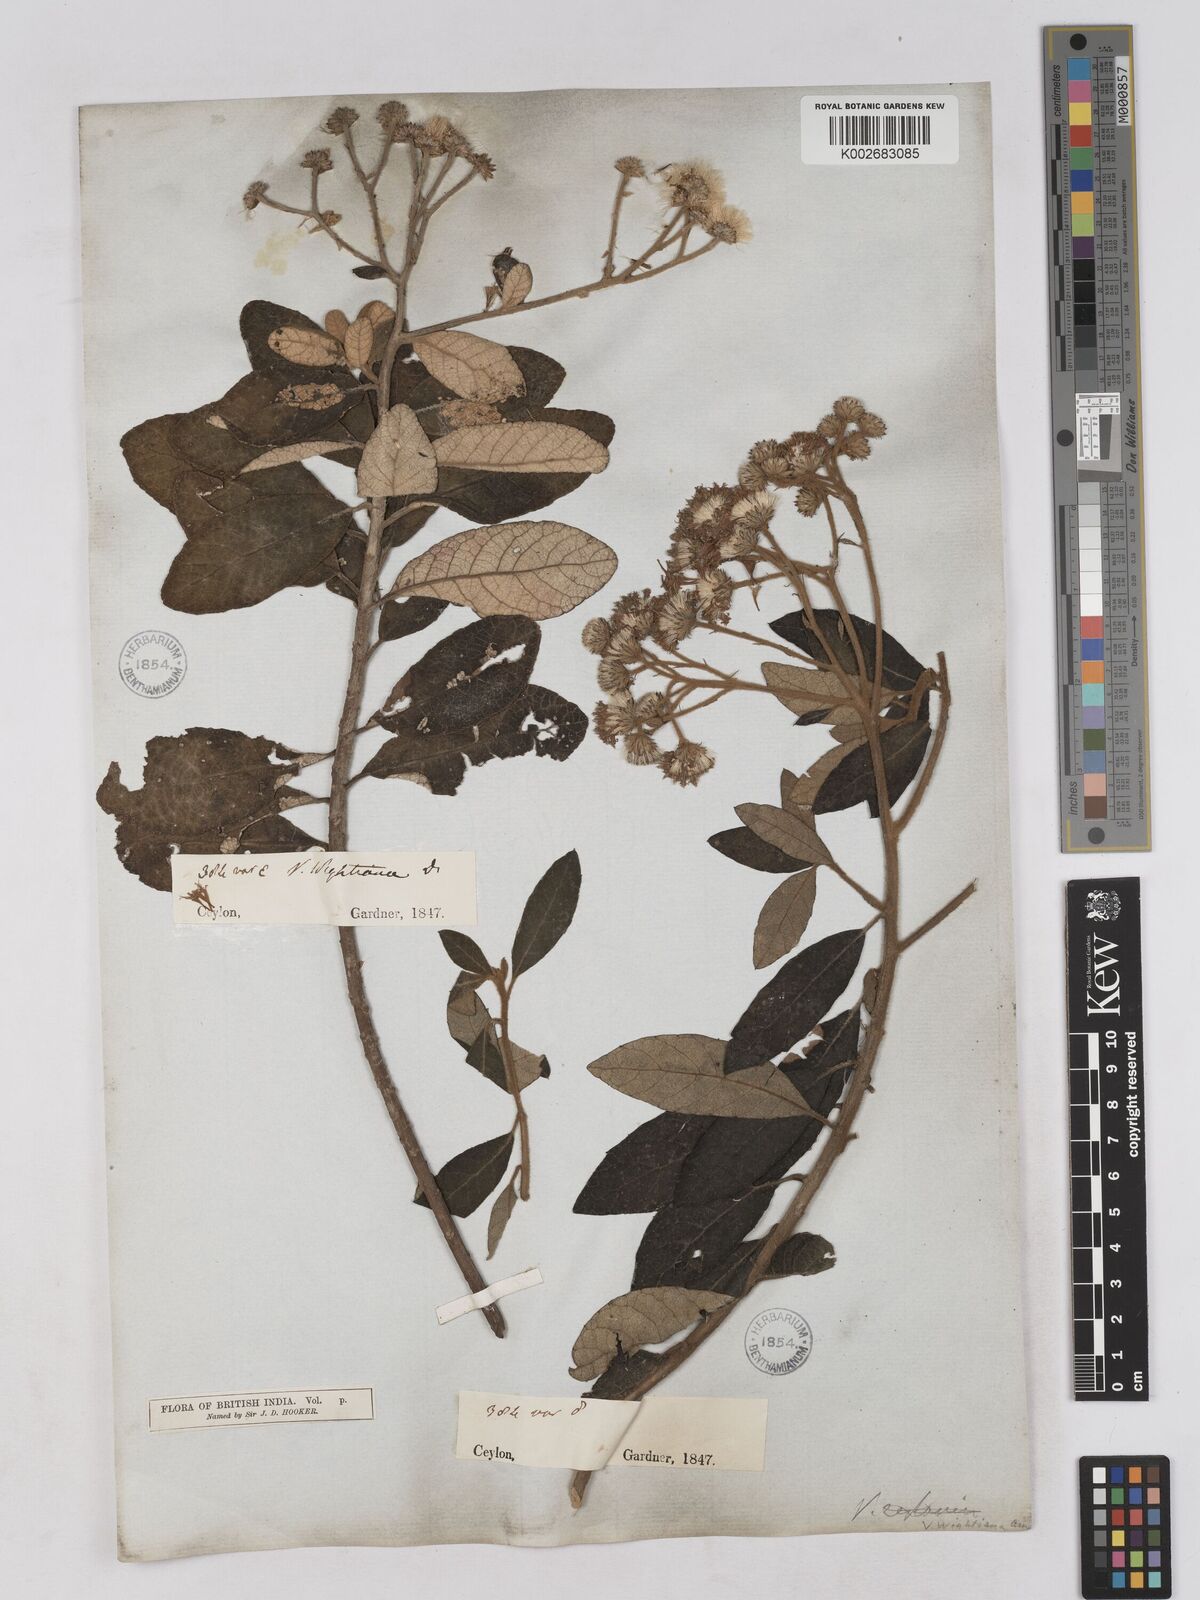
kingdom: Plantae
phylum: Tracheophyta
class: Magnoliopsida
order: Asterales
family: Asteraceae
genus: Uniyala
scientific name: Uniyala wightiana
